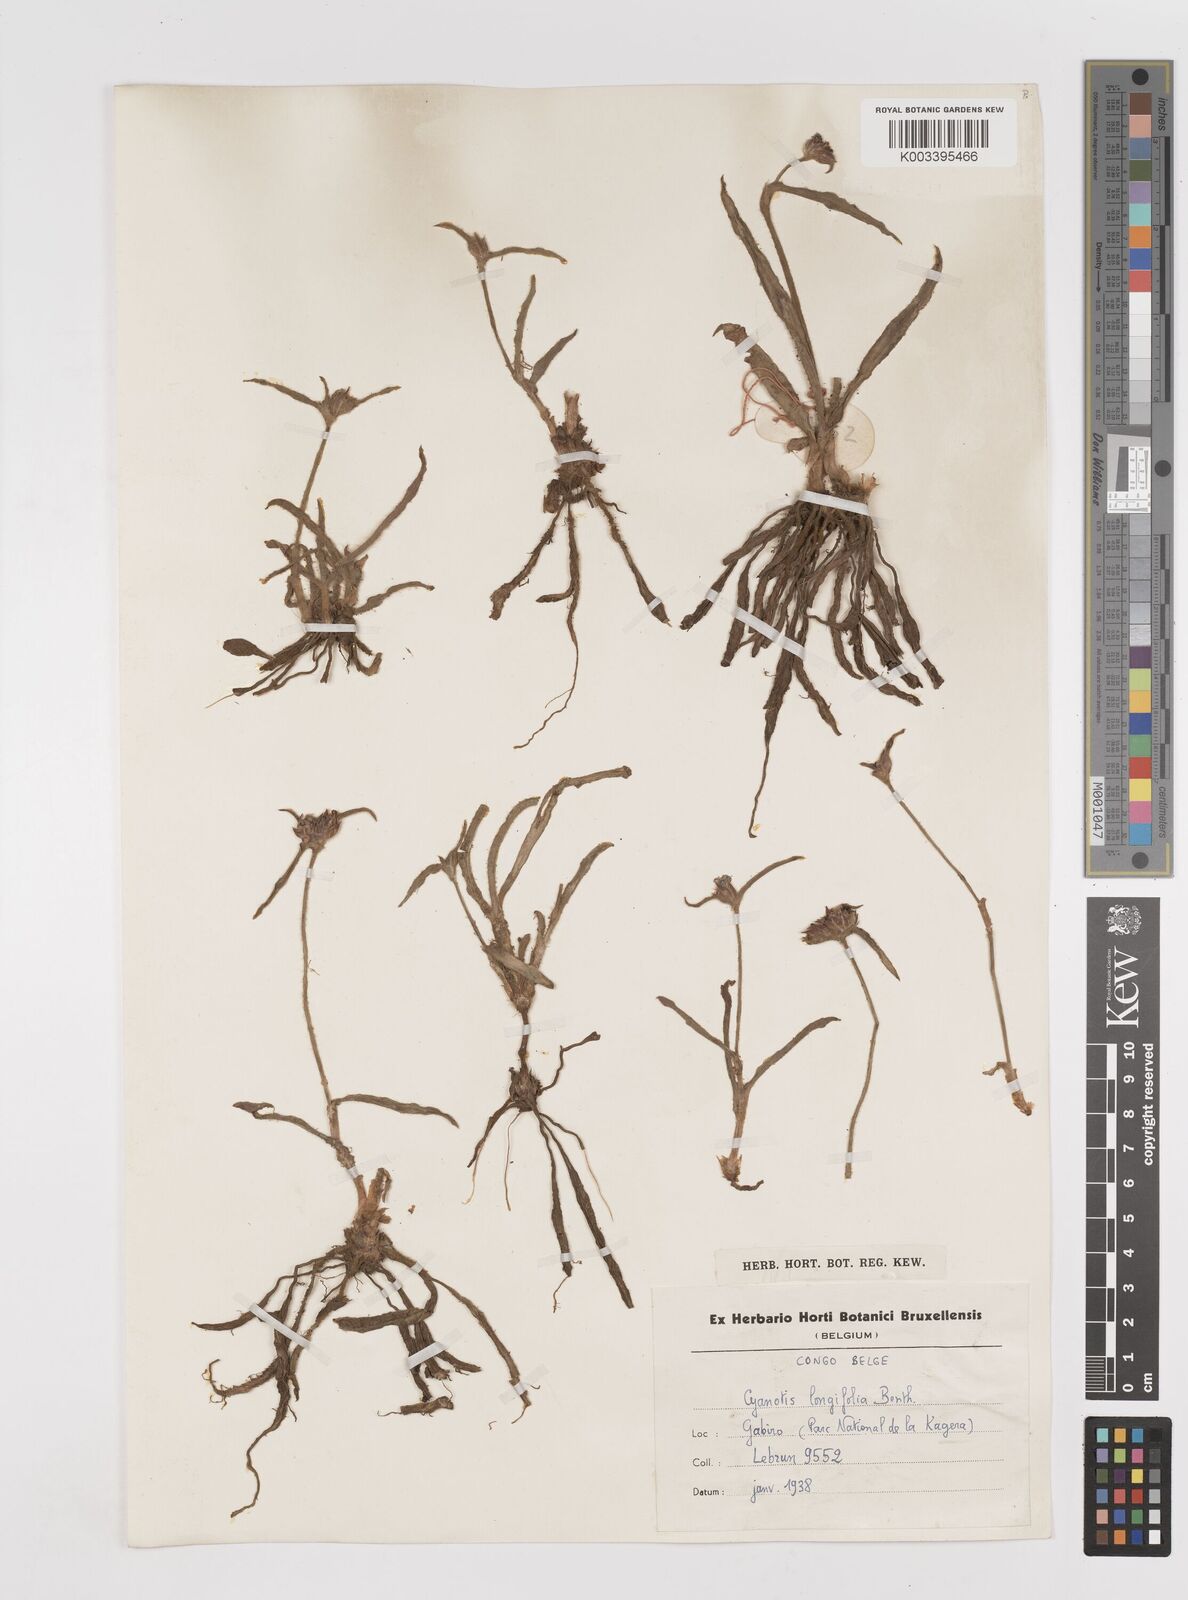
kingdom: Plantae
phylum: Tracheophyta
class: Liliopsida
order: Commelinales
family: Commelinaceae
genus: Cyanotis
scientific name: Cyanotis longifolia
